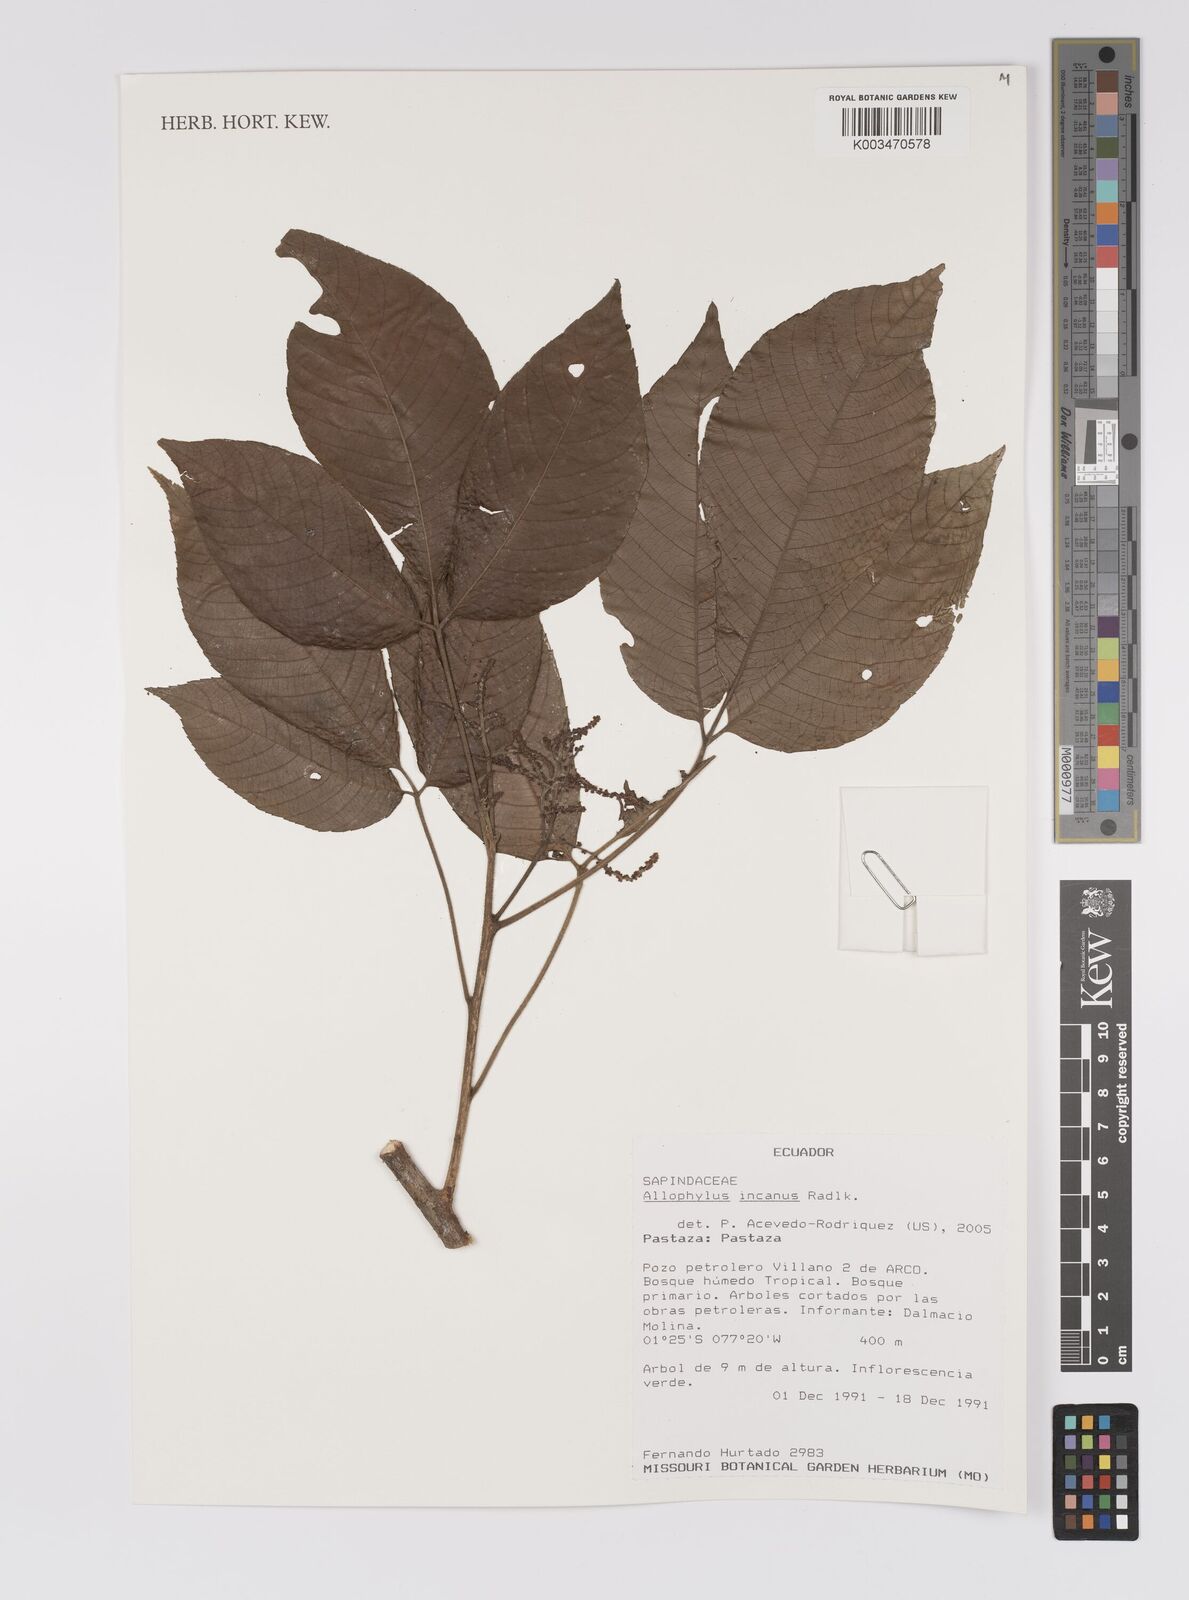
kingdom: Plantae
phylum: Tracheophyta
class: Magnoliopsida
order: Sapindales
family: Sapindaceae
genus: Allophylus
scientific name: Allophylus incanus
